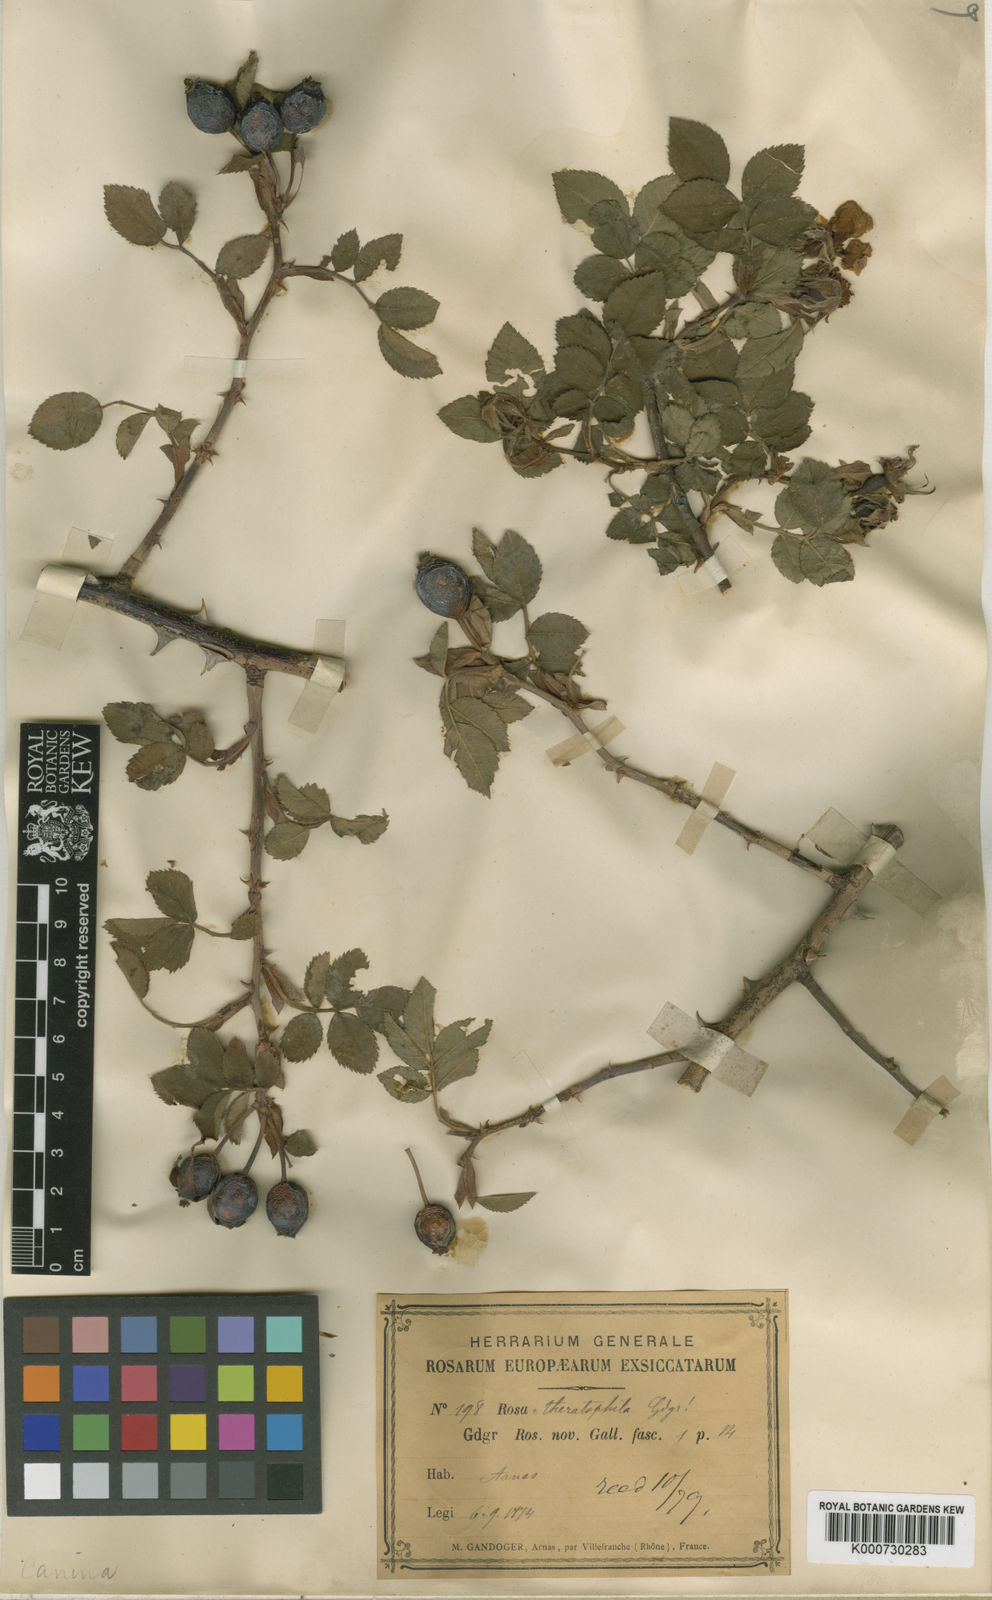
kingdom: Plantae
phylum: Tracheophyta
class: Magnoliopsida
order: Rosales
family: Rosaceae
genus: Rosa
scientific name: Rosa canina
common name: Dog rose
